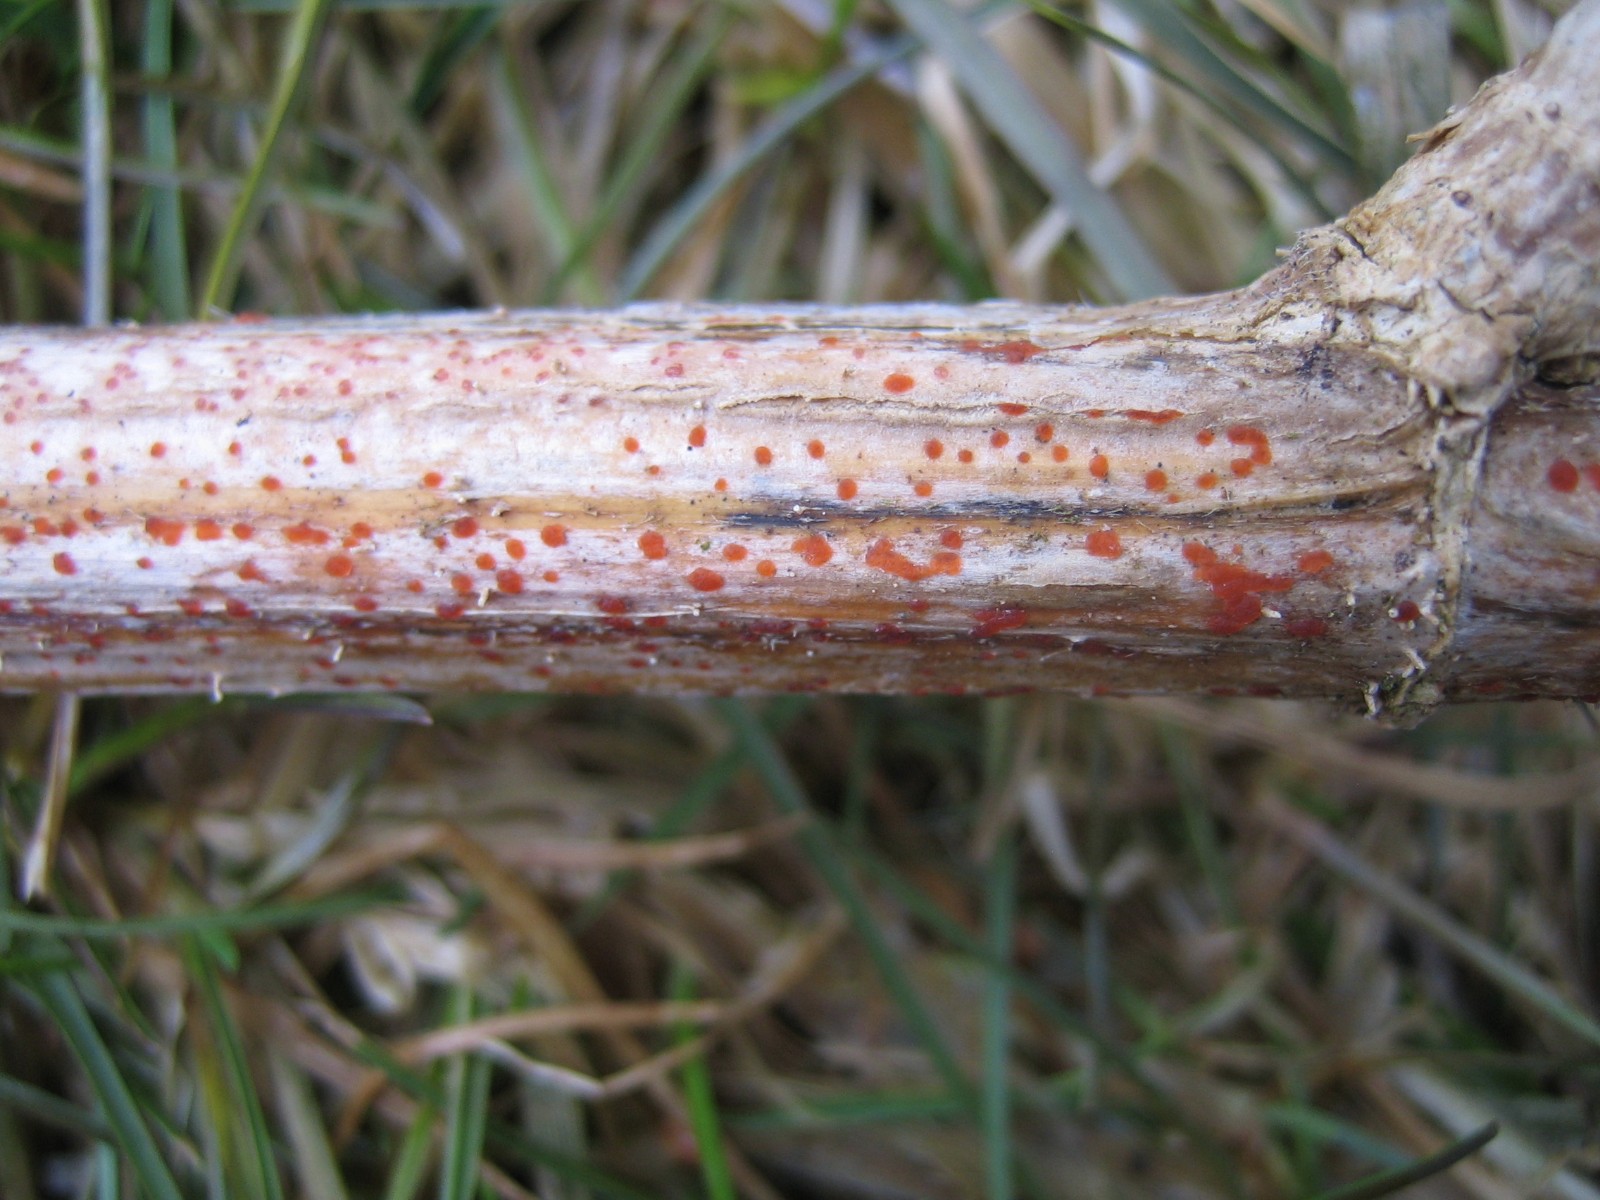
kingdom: Fungi
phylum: Ascomycota
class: Leotiomycetes
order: Helotiales
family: Calloriaceae
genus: Calloria
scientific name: Calloria urticae
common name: nælde-orangeskive
